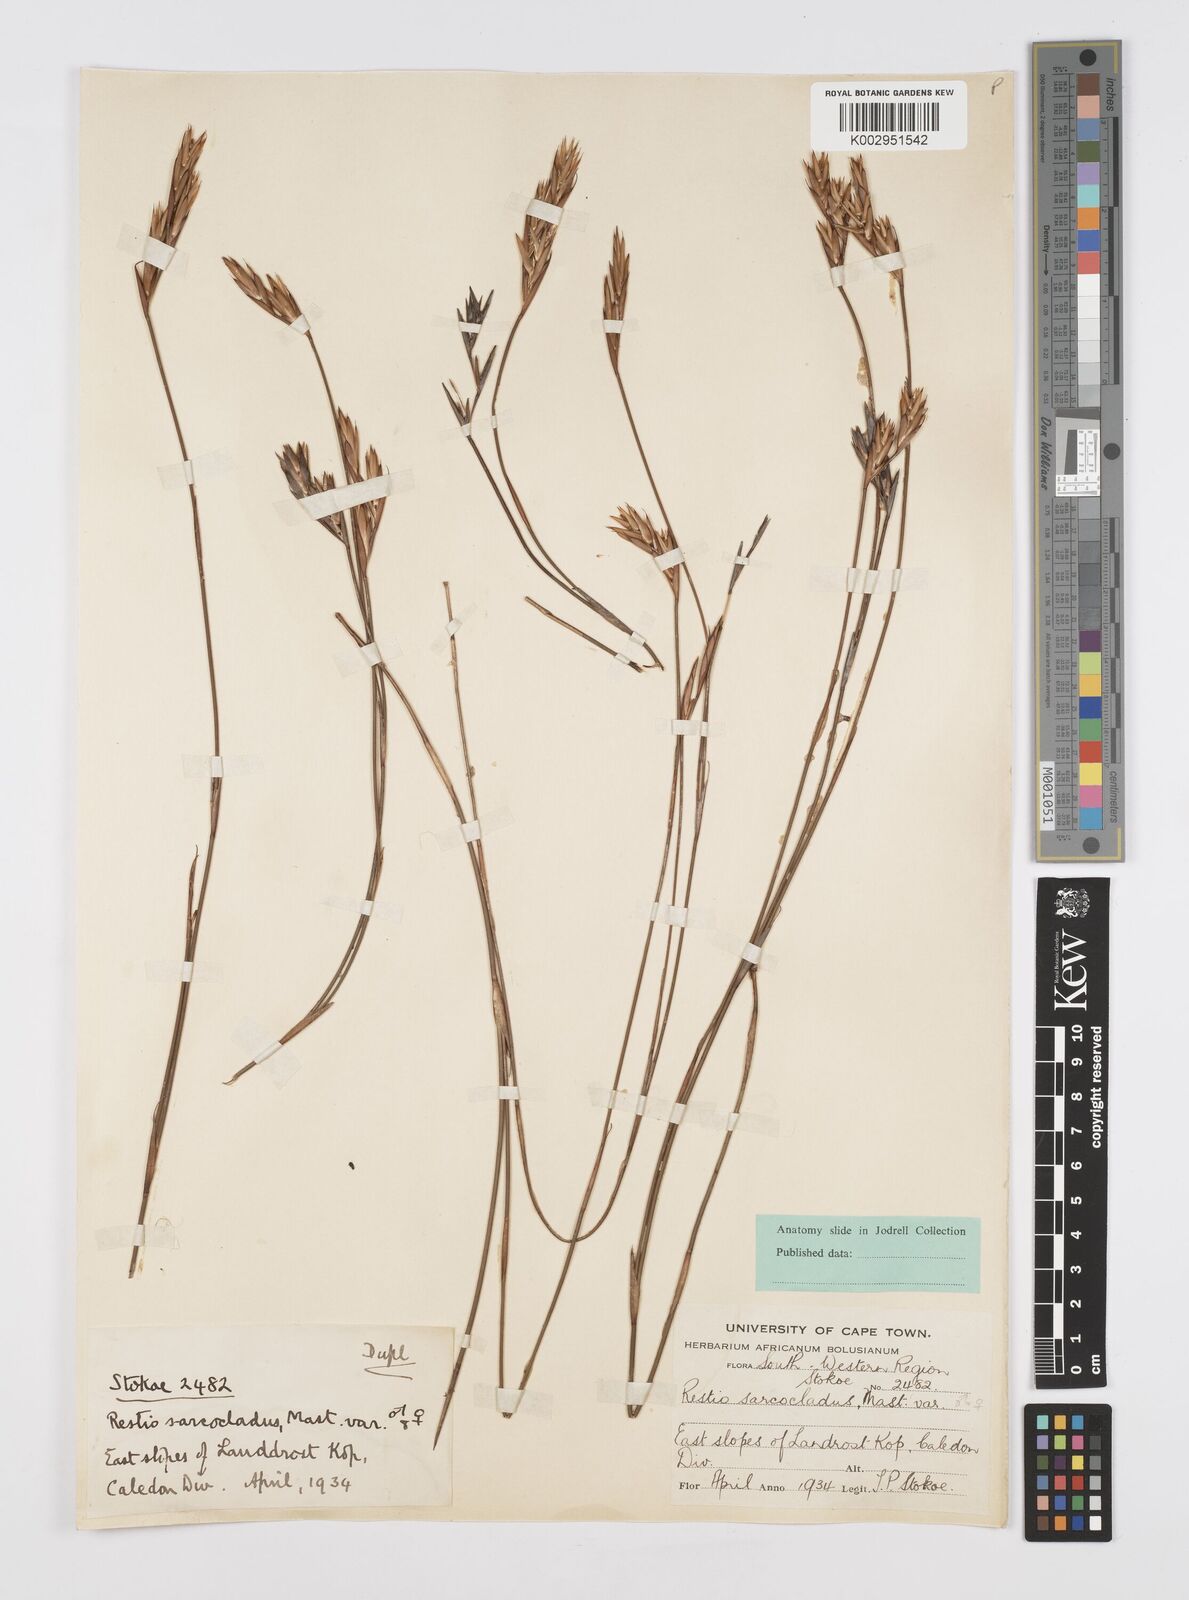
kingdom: Plantae
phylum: Tracheophyta
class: Liliopsida
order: Poales
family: Restionaceae
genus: Restio
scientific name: Restio saroclados
